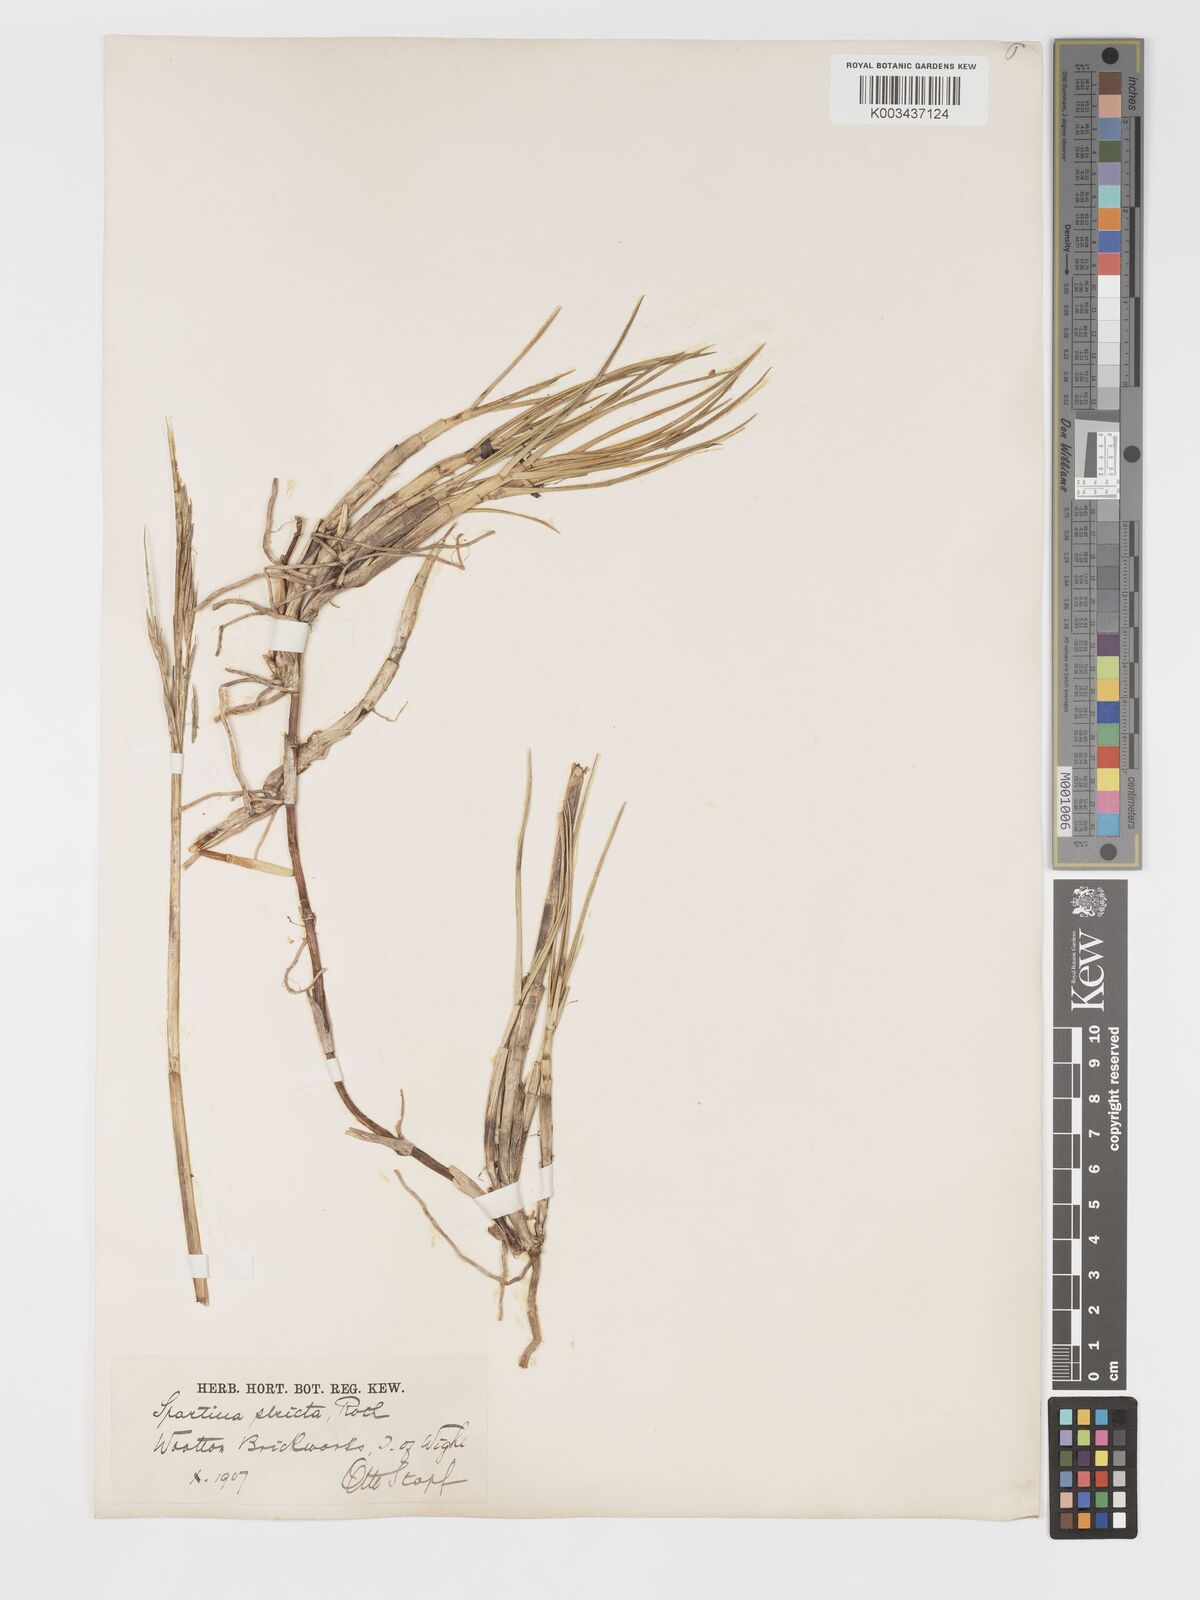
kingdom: Plantae
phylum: Tracheophyta
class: Liliopsida
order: Poales
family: Poaceae
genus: Sporobolus
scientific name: Sporobolus maritimus
